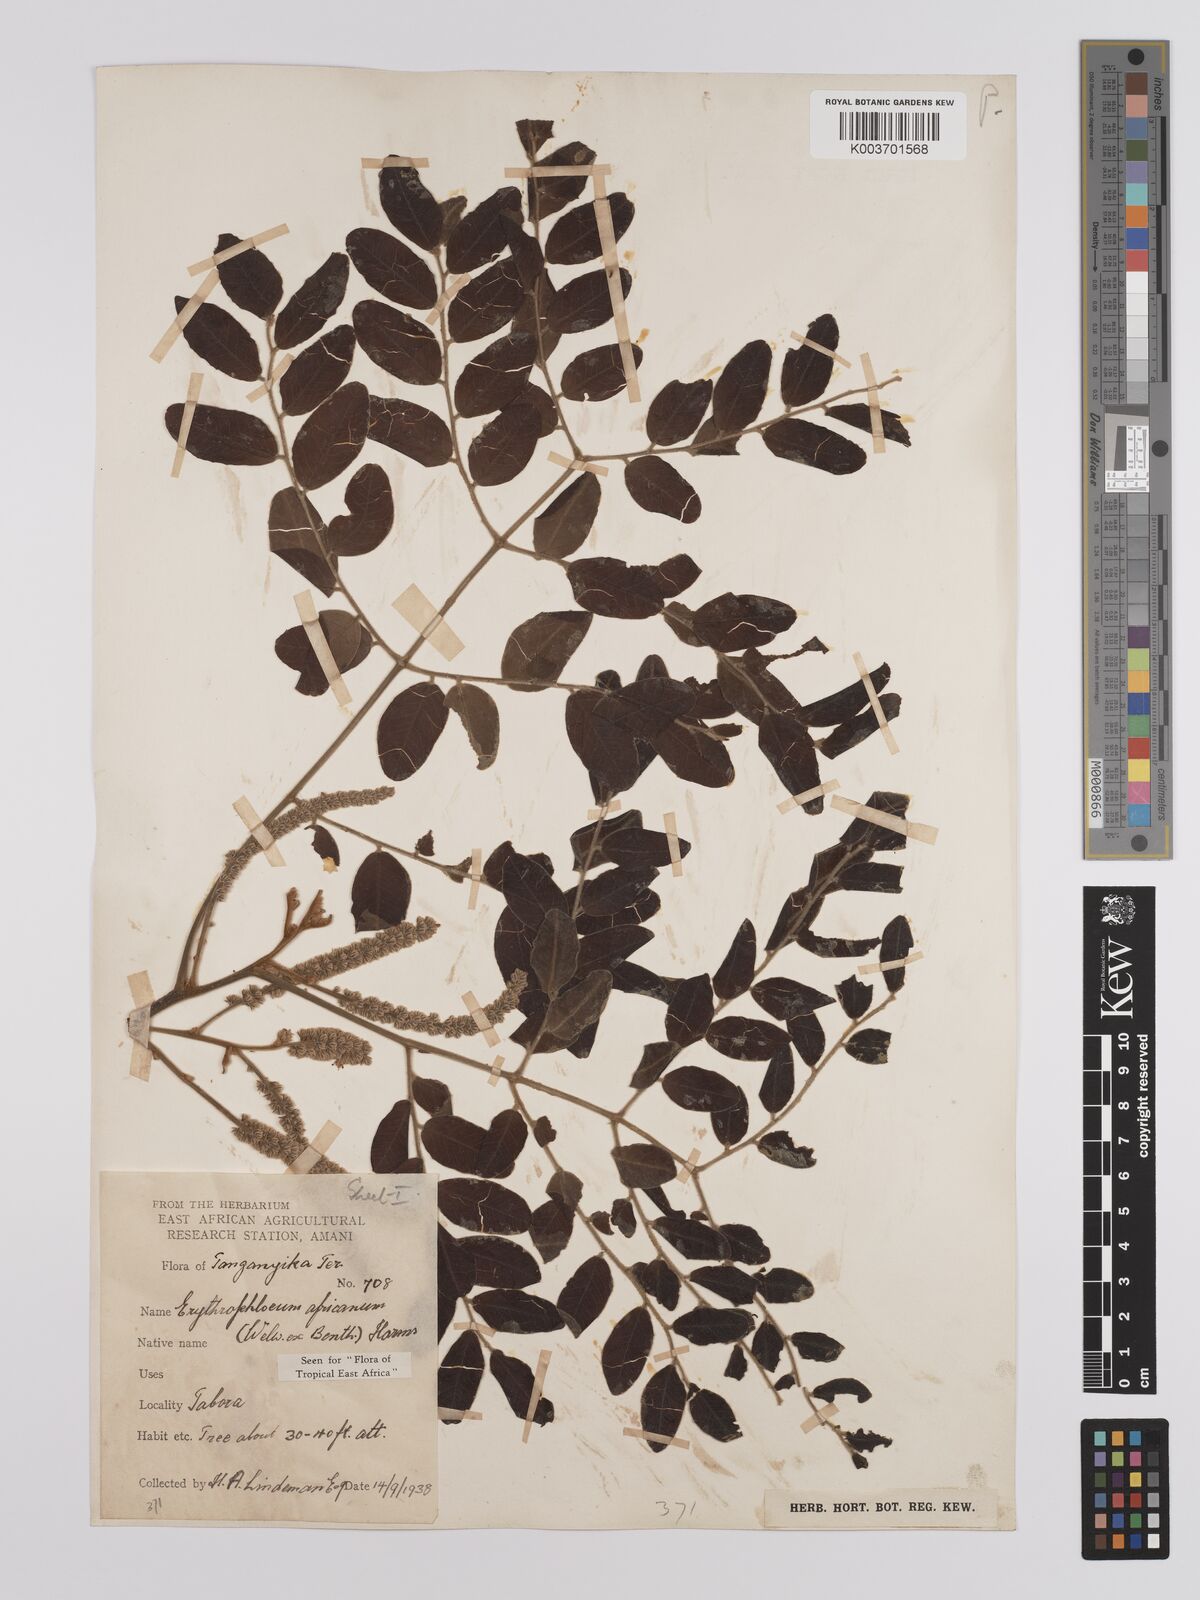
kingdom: Plantae
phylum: Tracheophyta
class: Magnoliopsida
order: Fabales
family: Fabaceae
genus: Erythrophleum
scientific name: Erythrophleum africanum
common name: African blackwood
